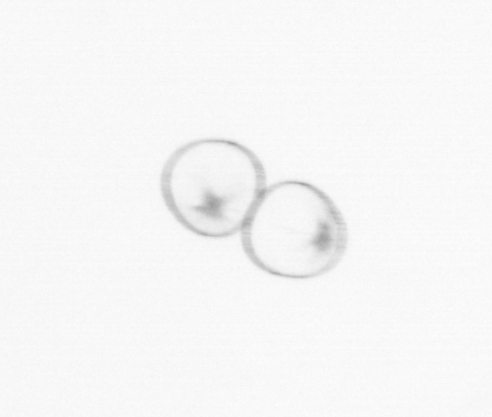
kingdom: Chromista
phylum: Myzozoa
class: Dinophyceae
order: Noctilucales
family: Noctilucaceae
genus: Noctiluca
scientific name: Noctiluca scintillans
